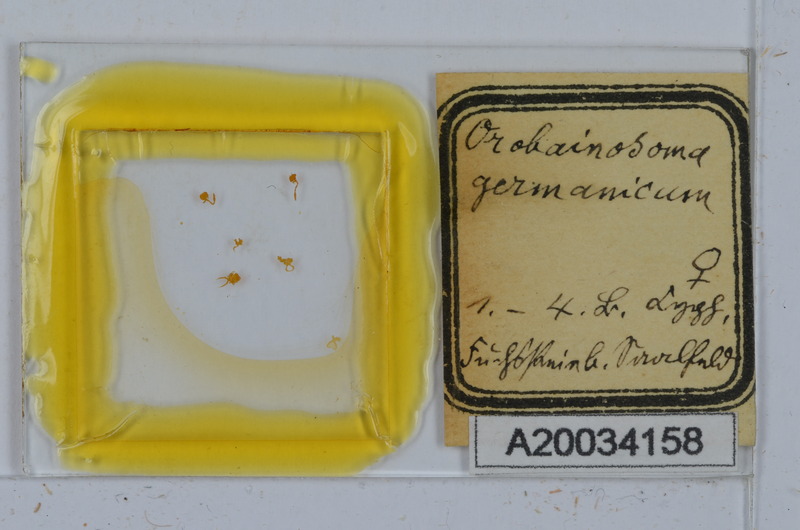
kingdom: Animalia
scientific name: Animalia
